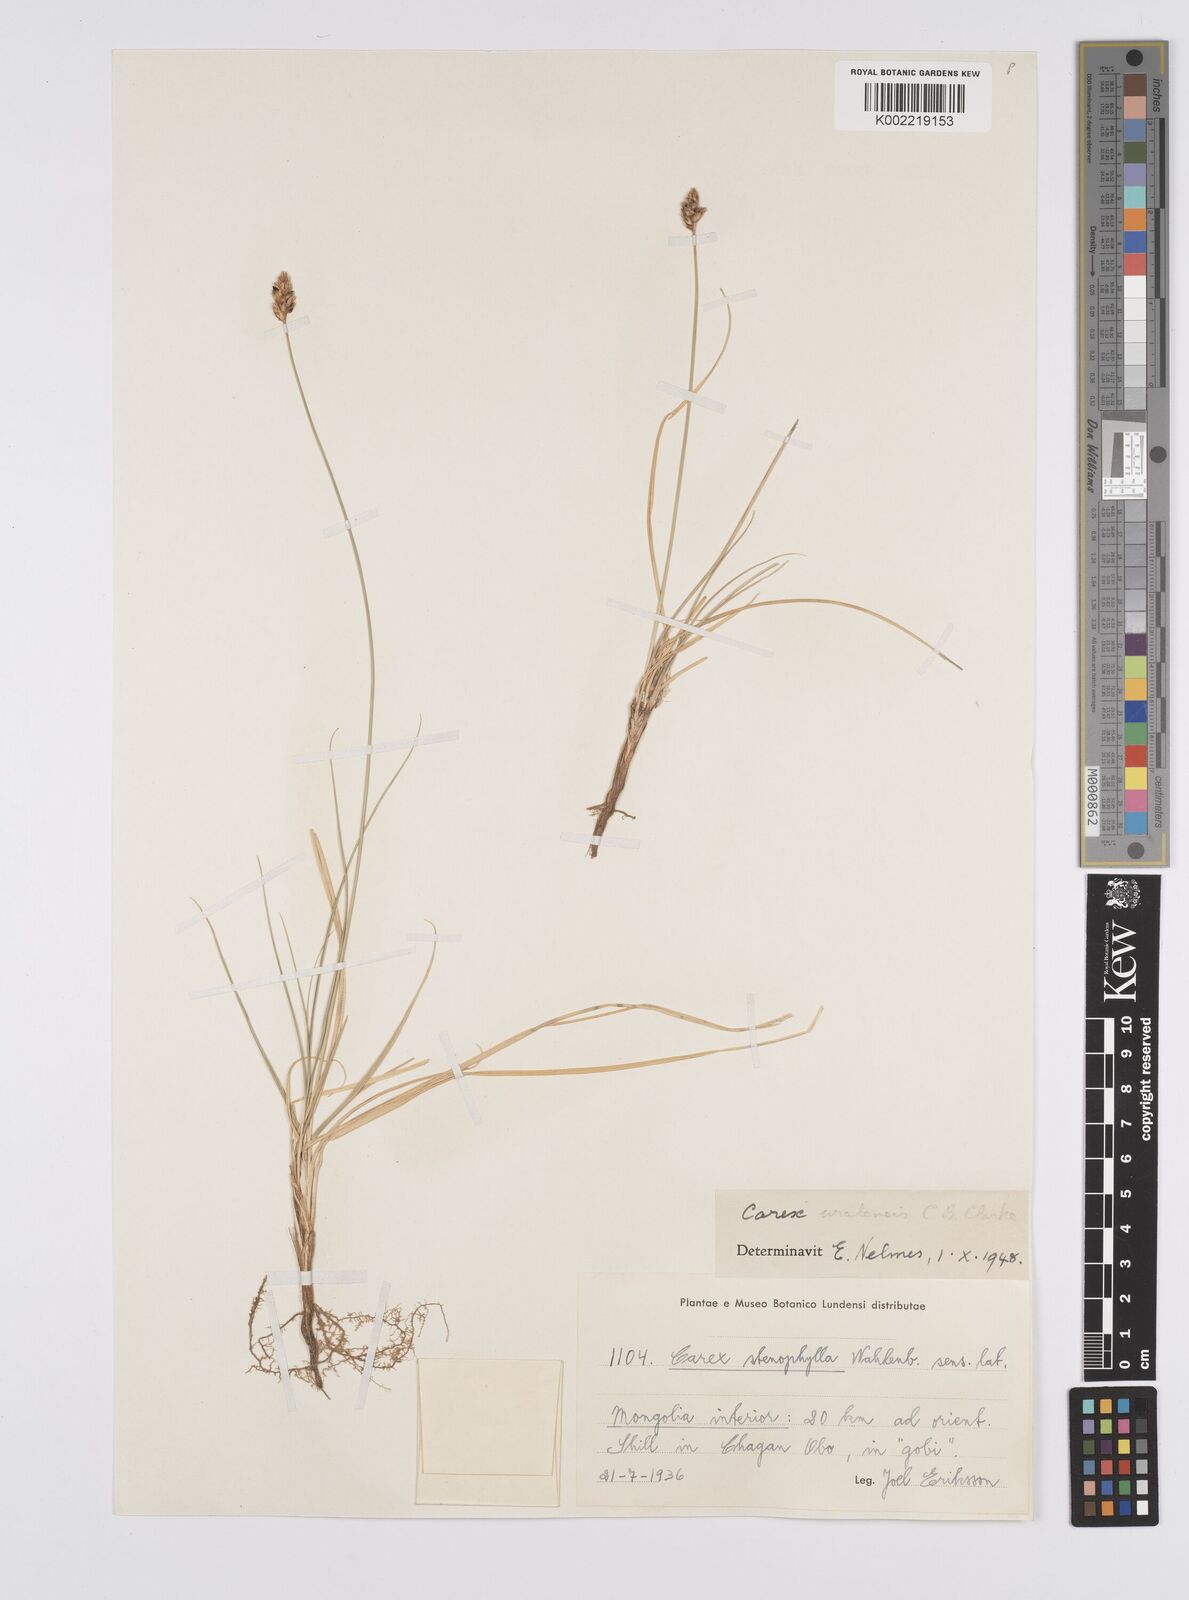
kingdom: Plantae
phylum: Tracheophyta
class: Liliopsida
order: Poales
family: Cyperaceae
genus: Carex
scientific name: Carex stenophylla
